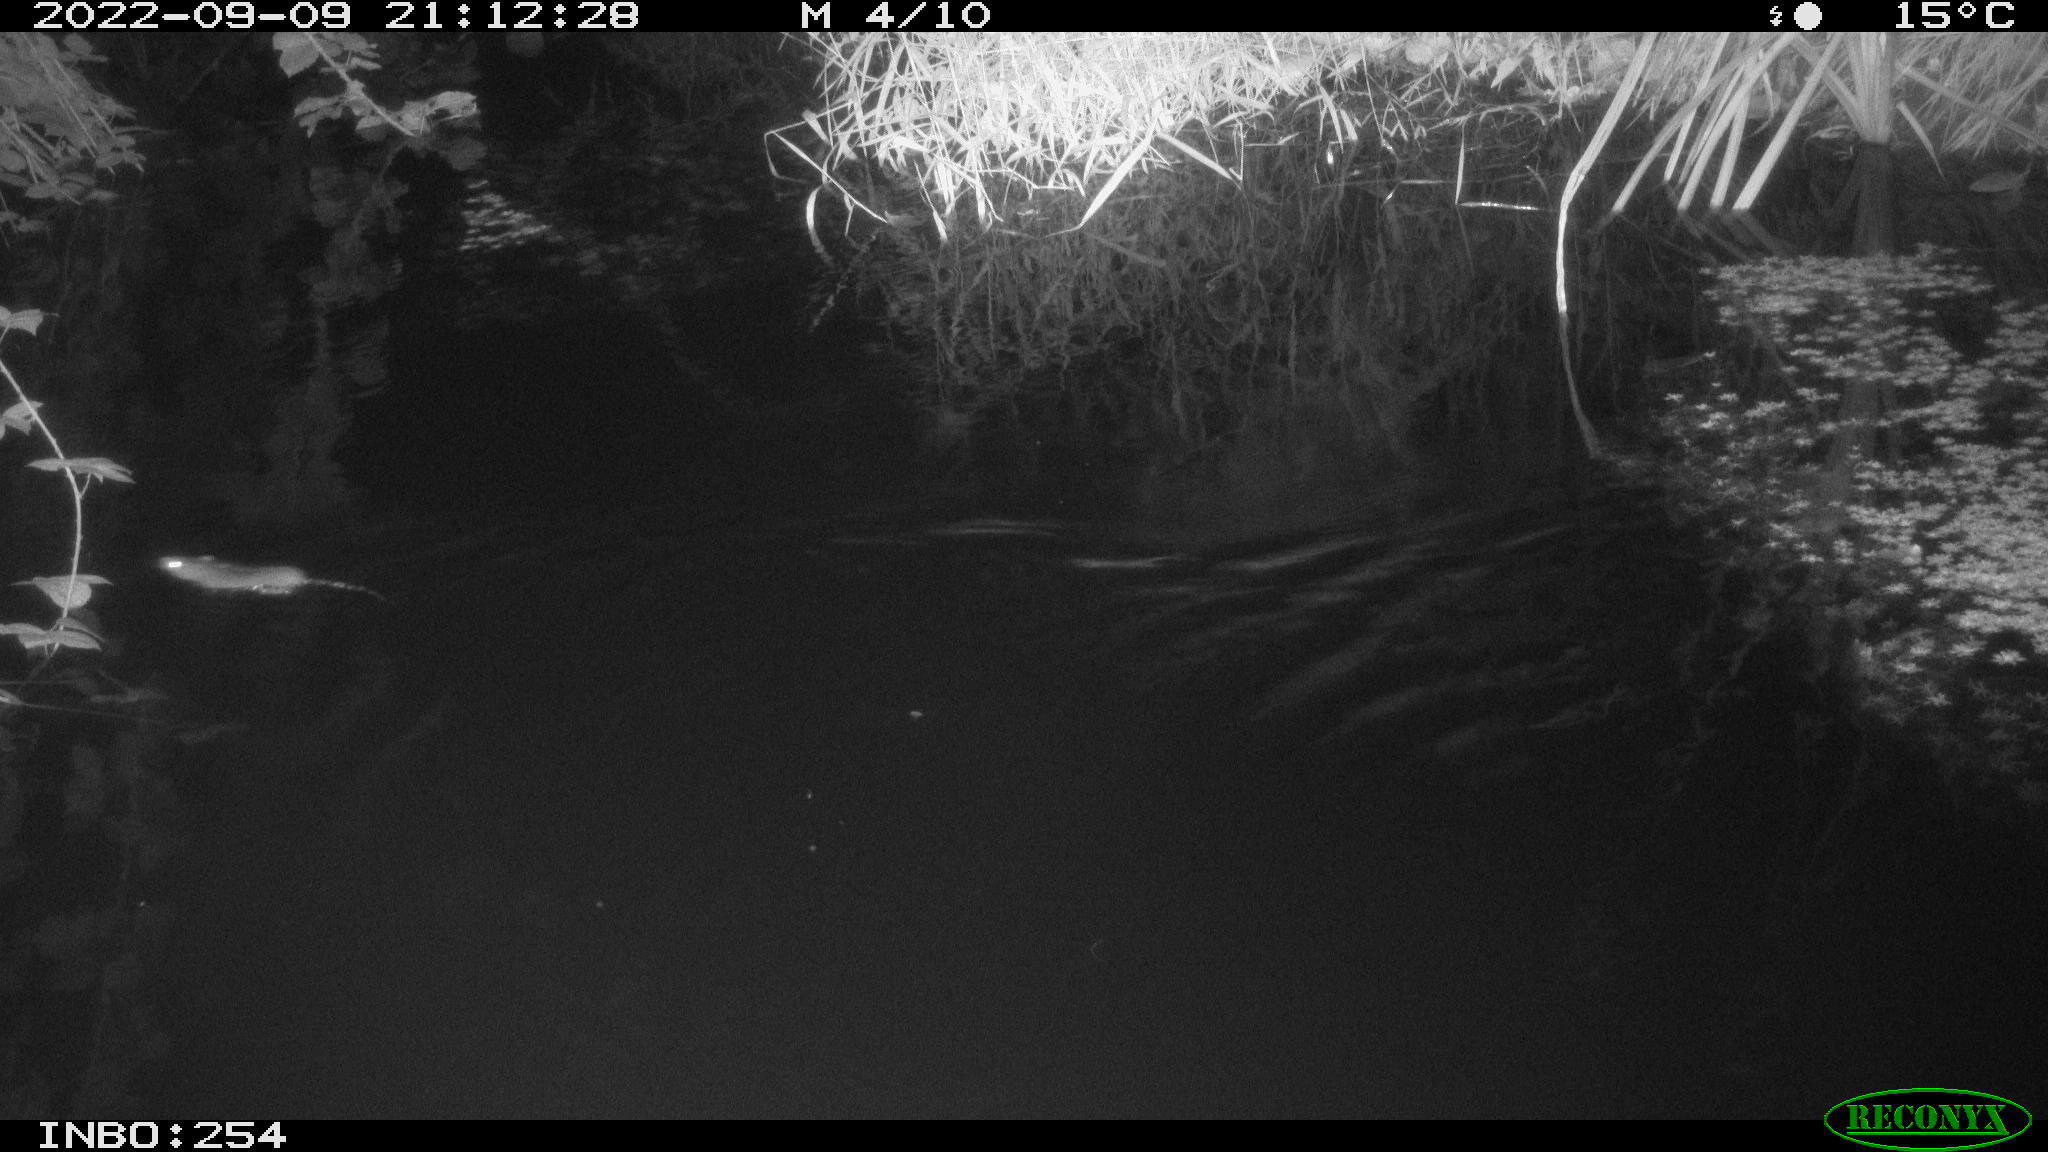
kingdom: Animalia
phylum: Chordata
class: Mammalia
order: Rodentia
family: Muridae
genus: Rattus
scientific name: Rattus norvegicus
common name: Brown rat
